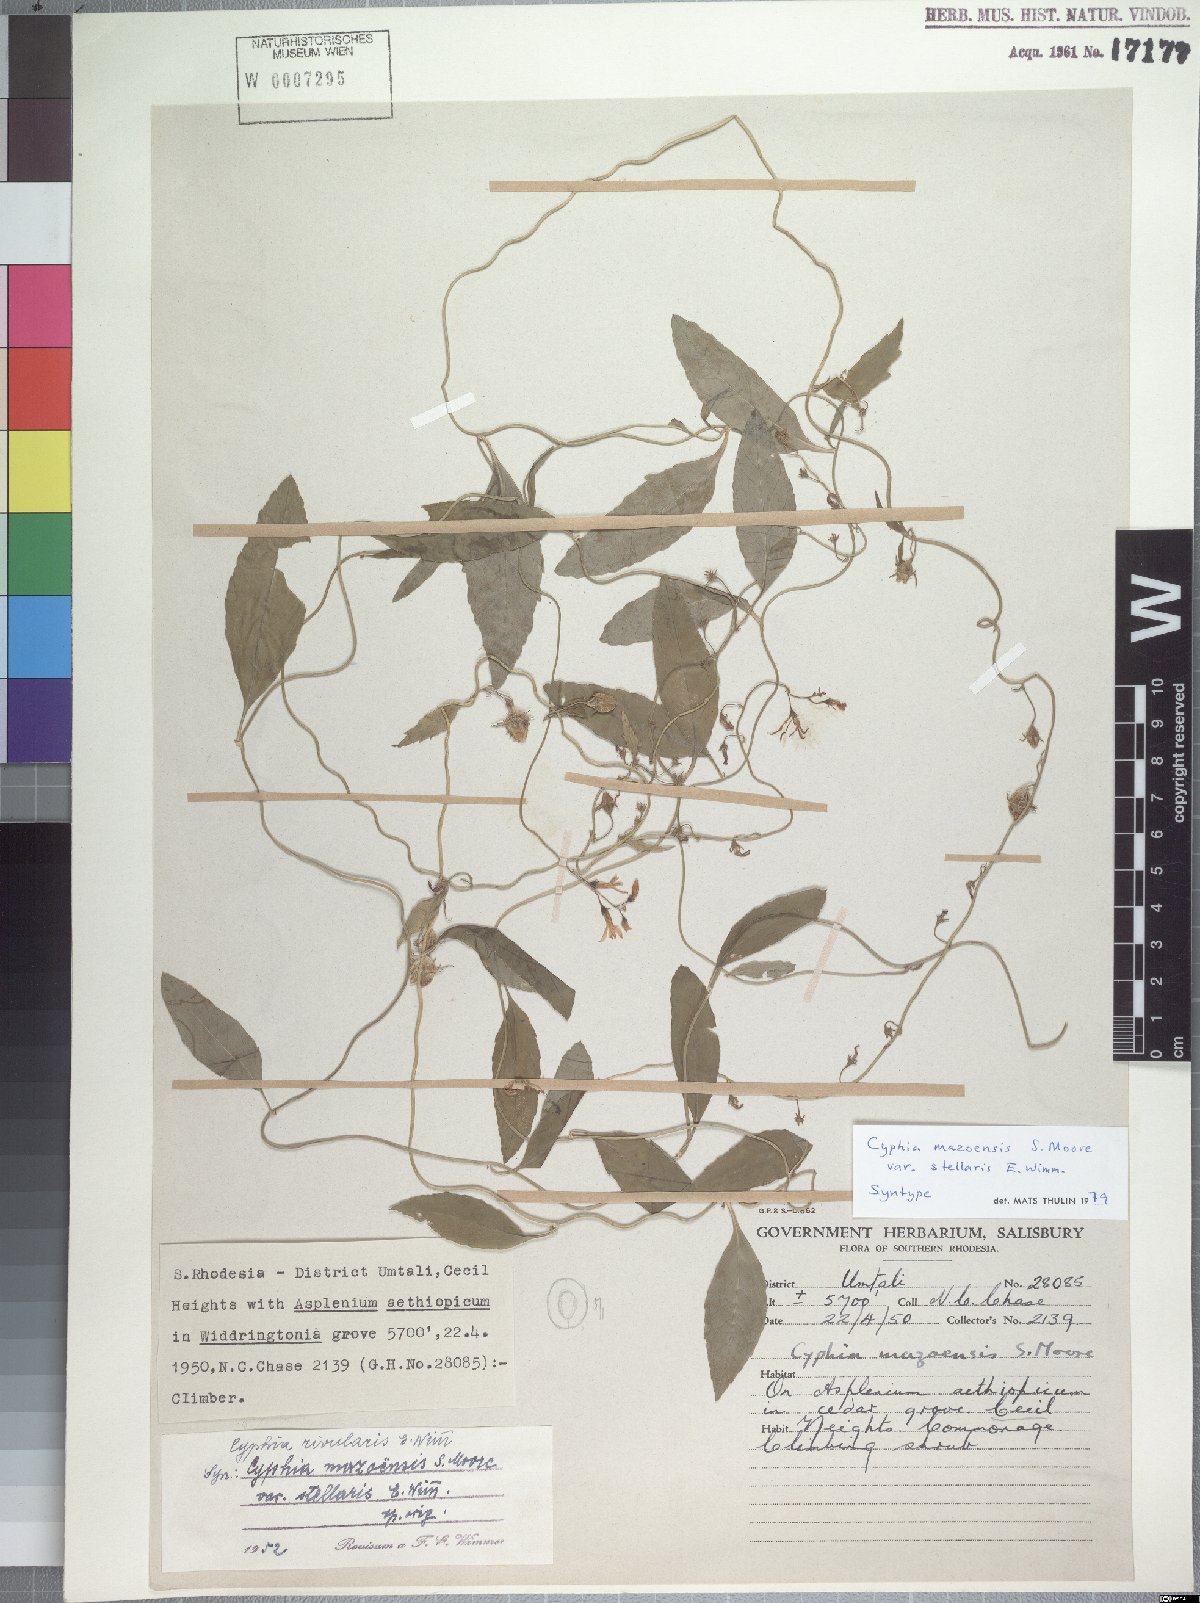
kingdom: Plantae
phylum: Tracheophyta
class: Magnoliopsida
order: Asterales
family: Campanulaceae
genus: Cyphia
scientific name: Cyphia mazoensis
